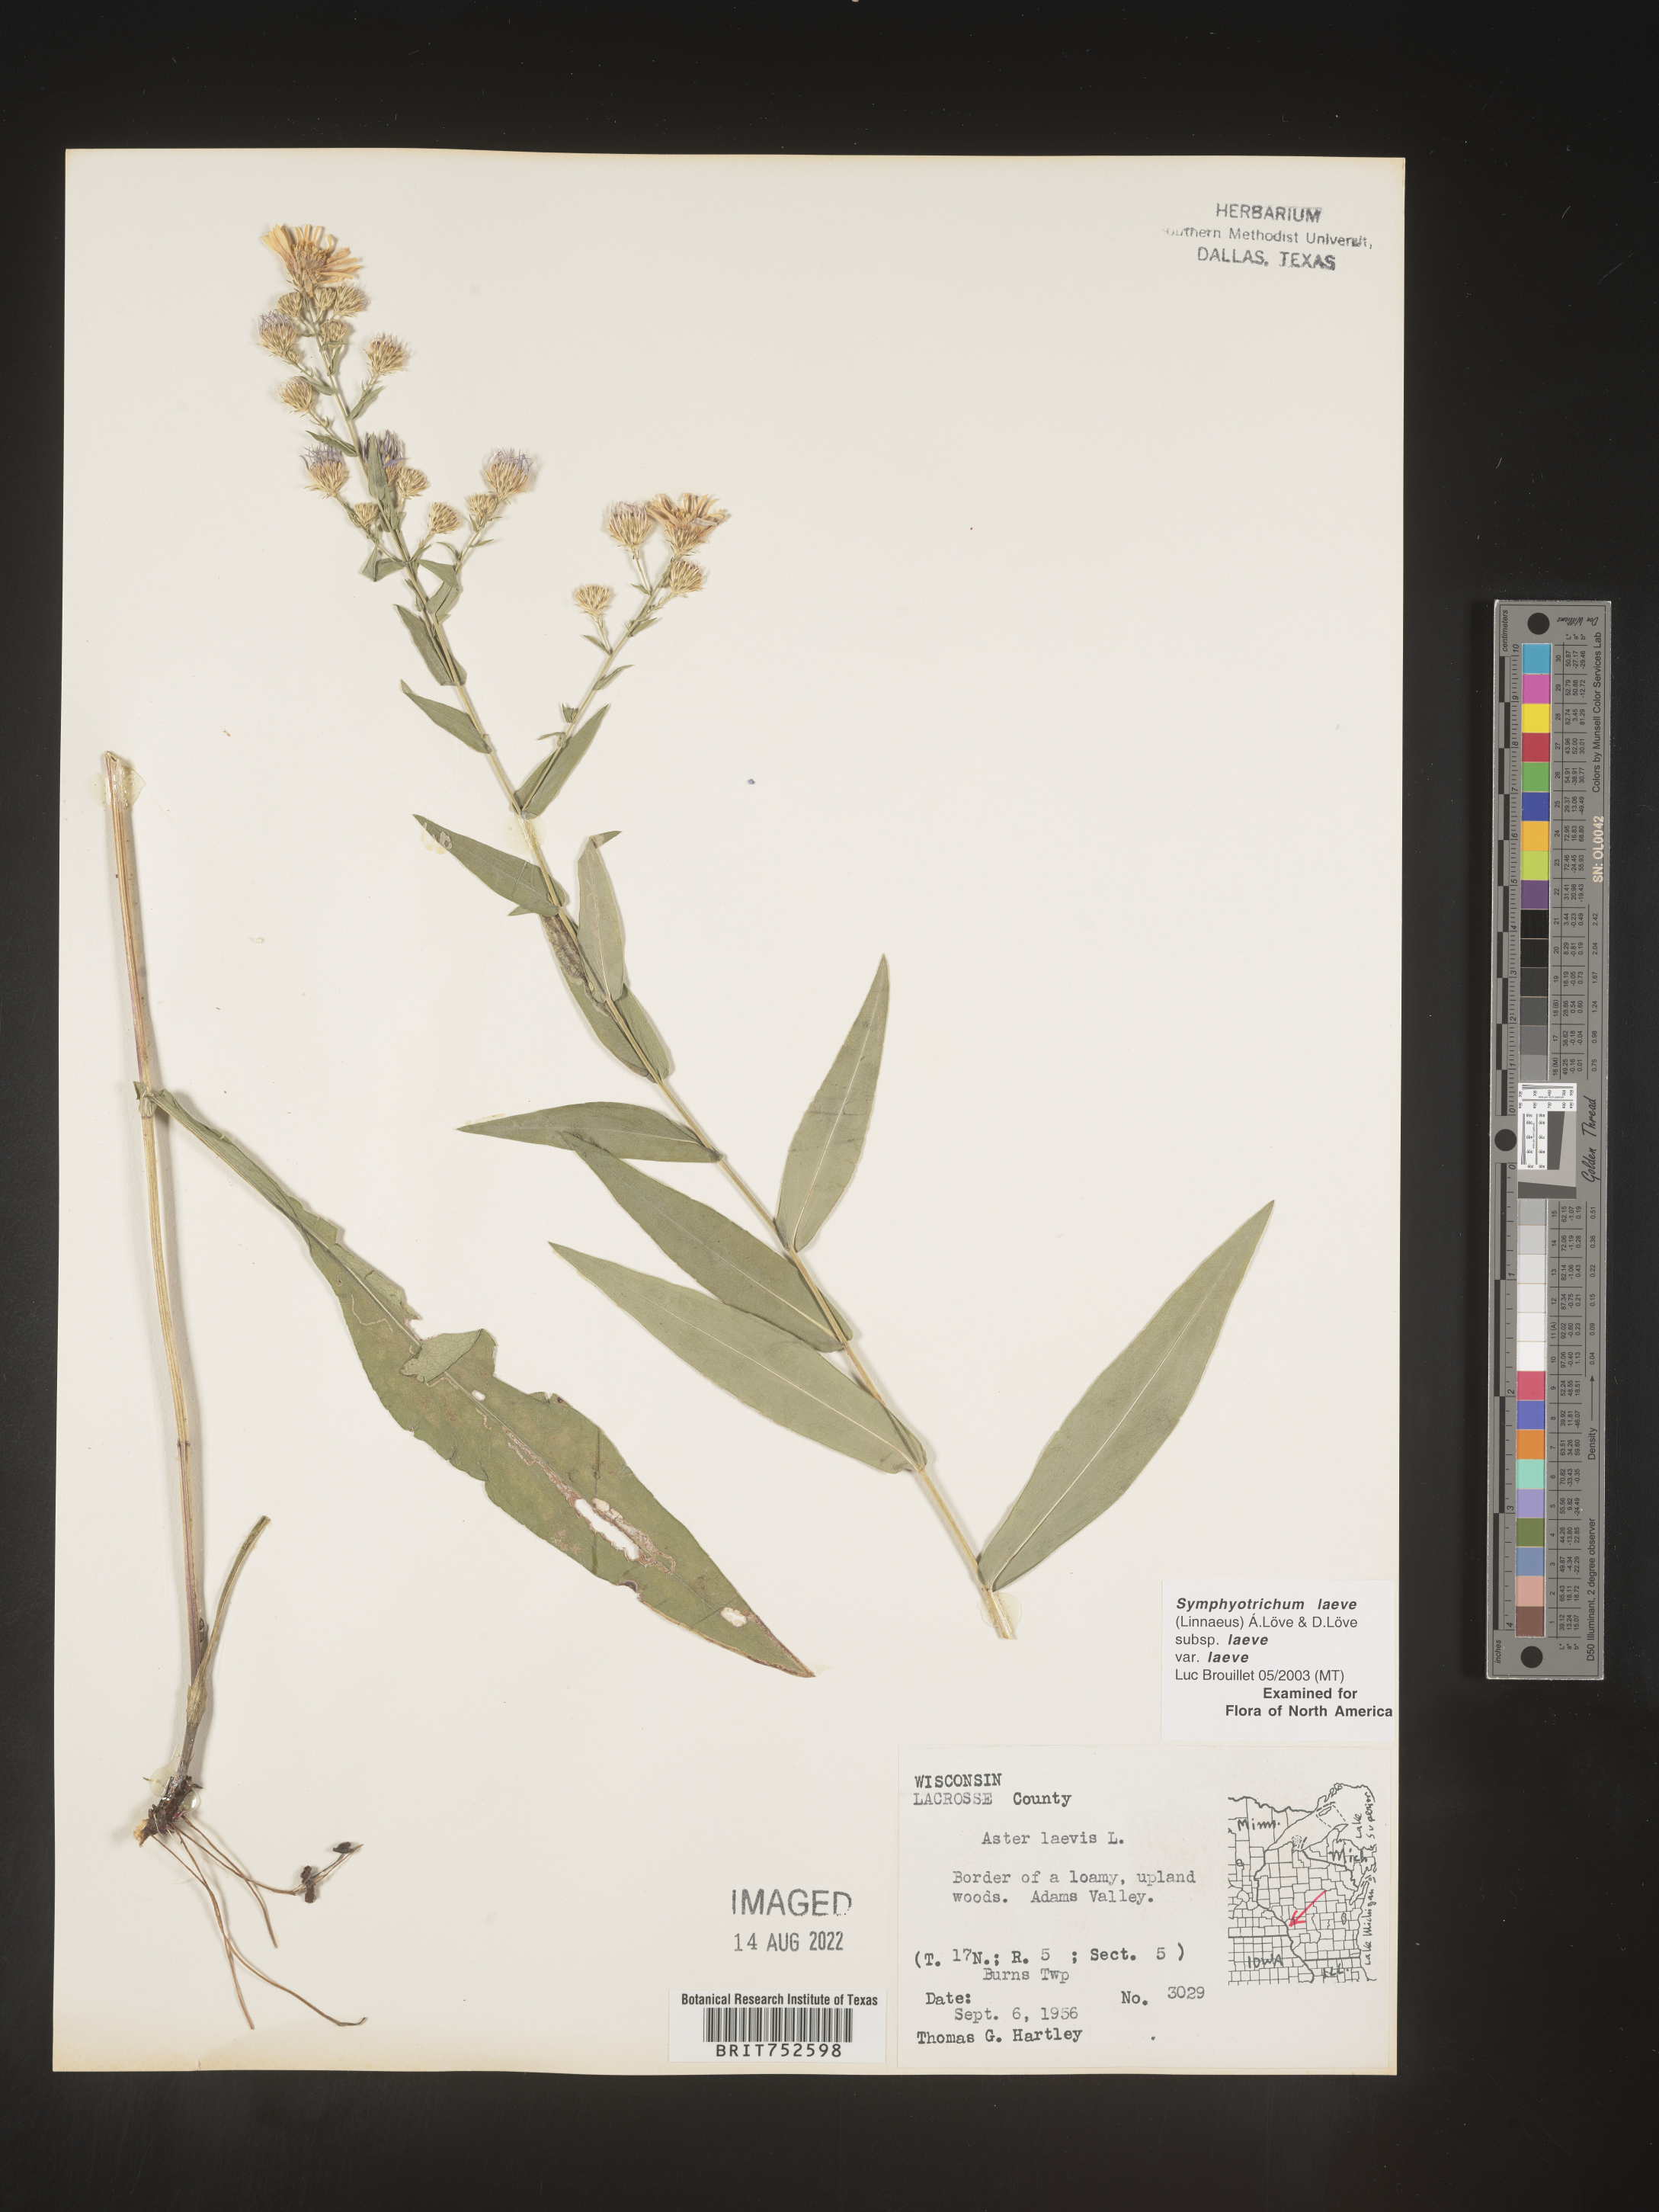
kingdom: Plantae
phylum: Tracheophyta
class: Magnoliopsida
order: Asterales
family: Asteraceae
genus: Symphyotrichum
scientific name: Symphyotrichum laeve
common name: Glaucous aster
